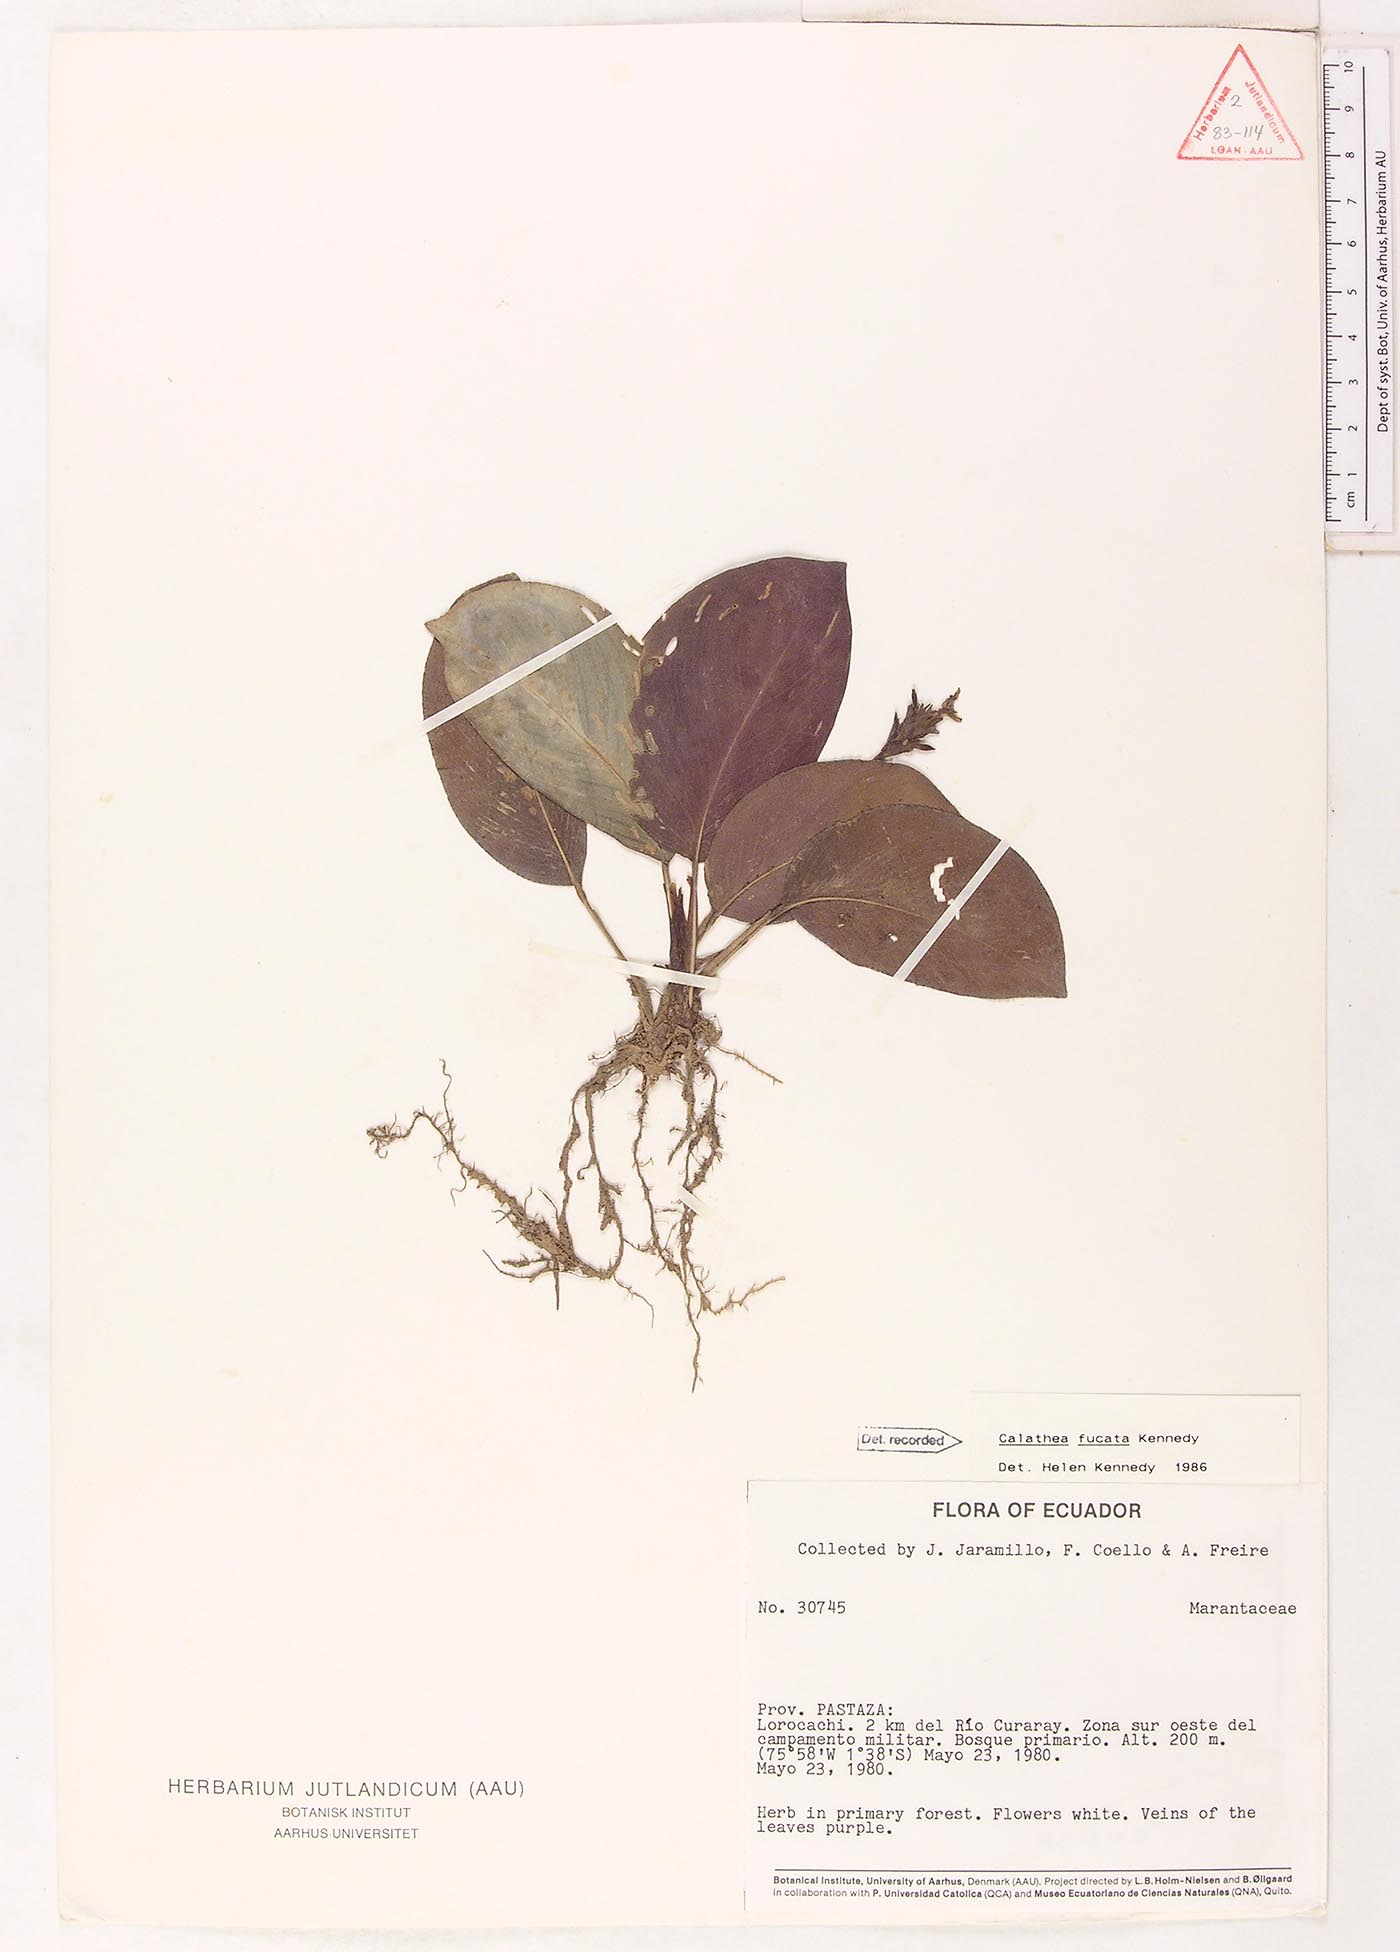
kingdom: Plantae
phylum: Tracheophyta
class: Liliopsida
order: Zingiberales
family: Marantaceae
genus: Goeppertia
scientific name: Goeppertia fucata
